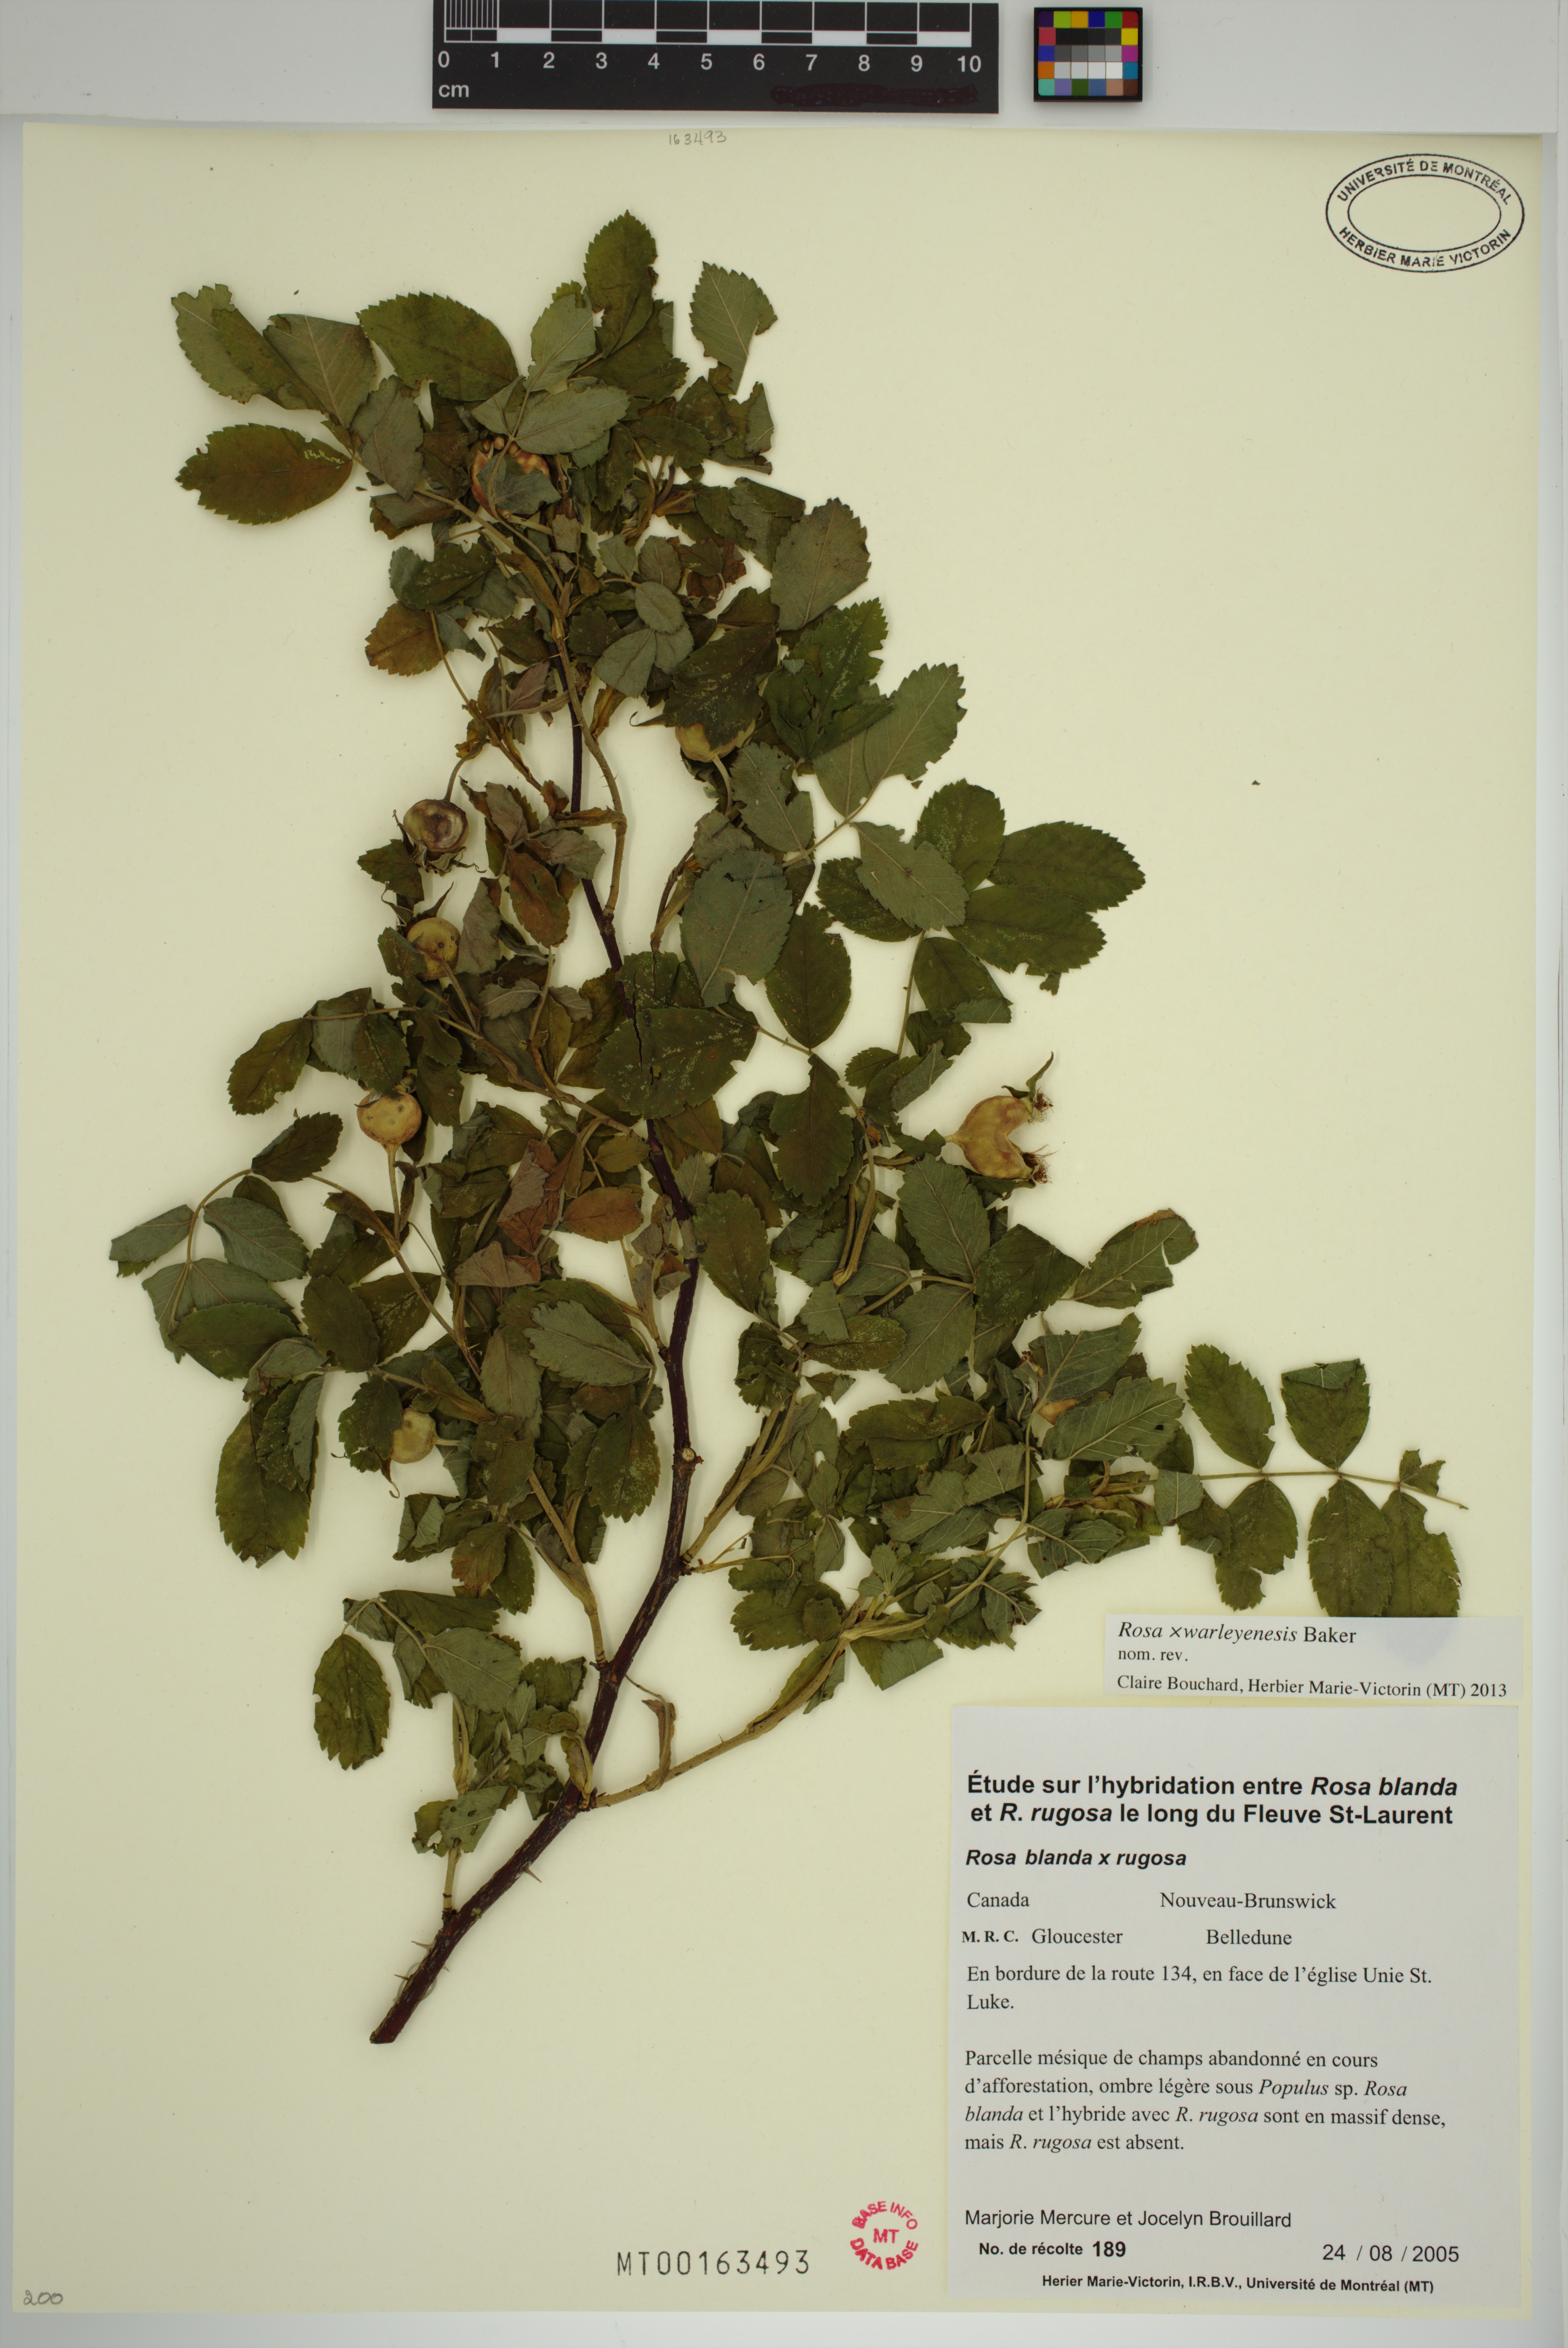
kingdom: Plantae
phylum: Tracheophyta
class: Magnoliopsida
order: Rosales
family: Rosaceae
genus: Rosa
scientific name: Rosa warleyensis
